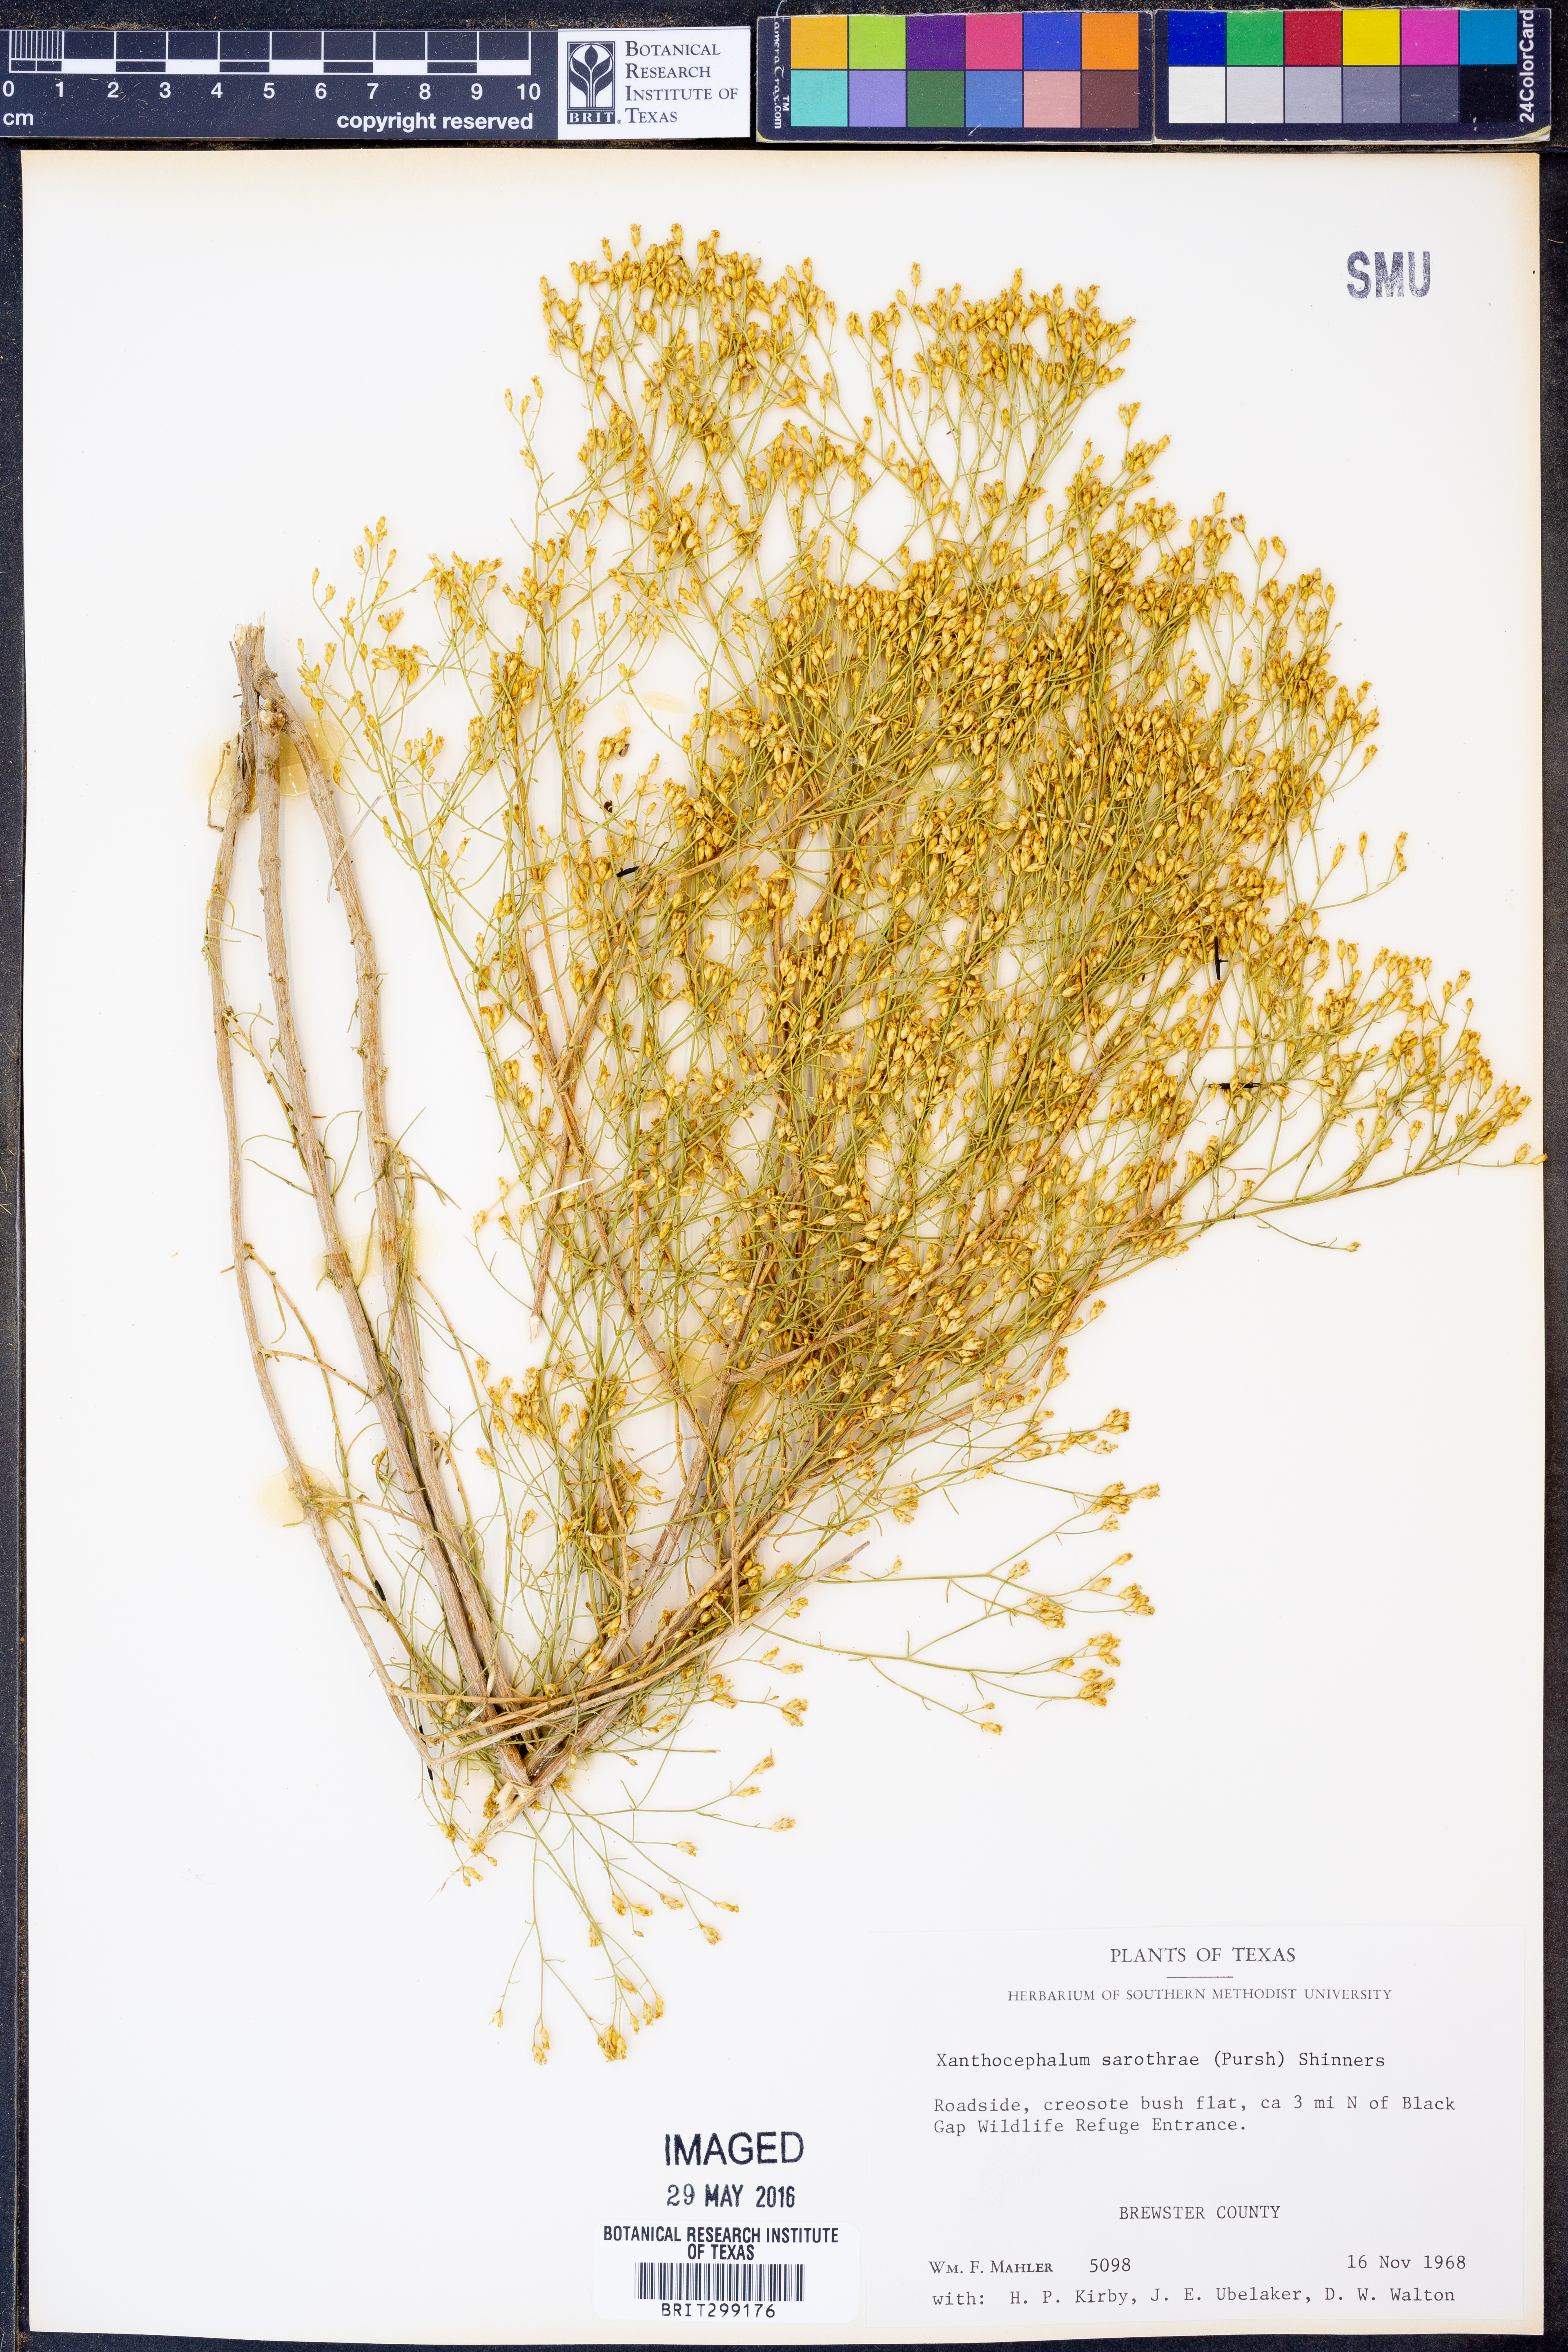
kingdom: Plantae
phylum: Tracheophyta
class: Magnoliopsida
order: Asterales
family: Asteraceae
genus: Gutierrezia
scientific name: Gutierrezia sarothrae
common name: Broom snakeweed
